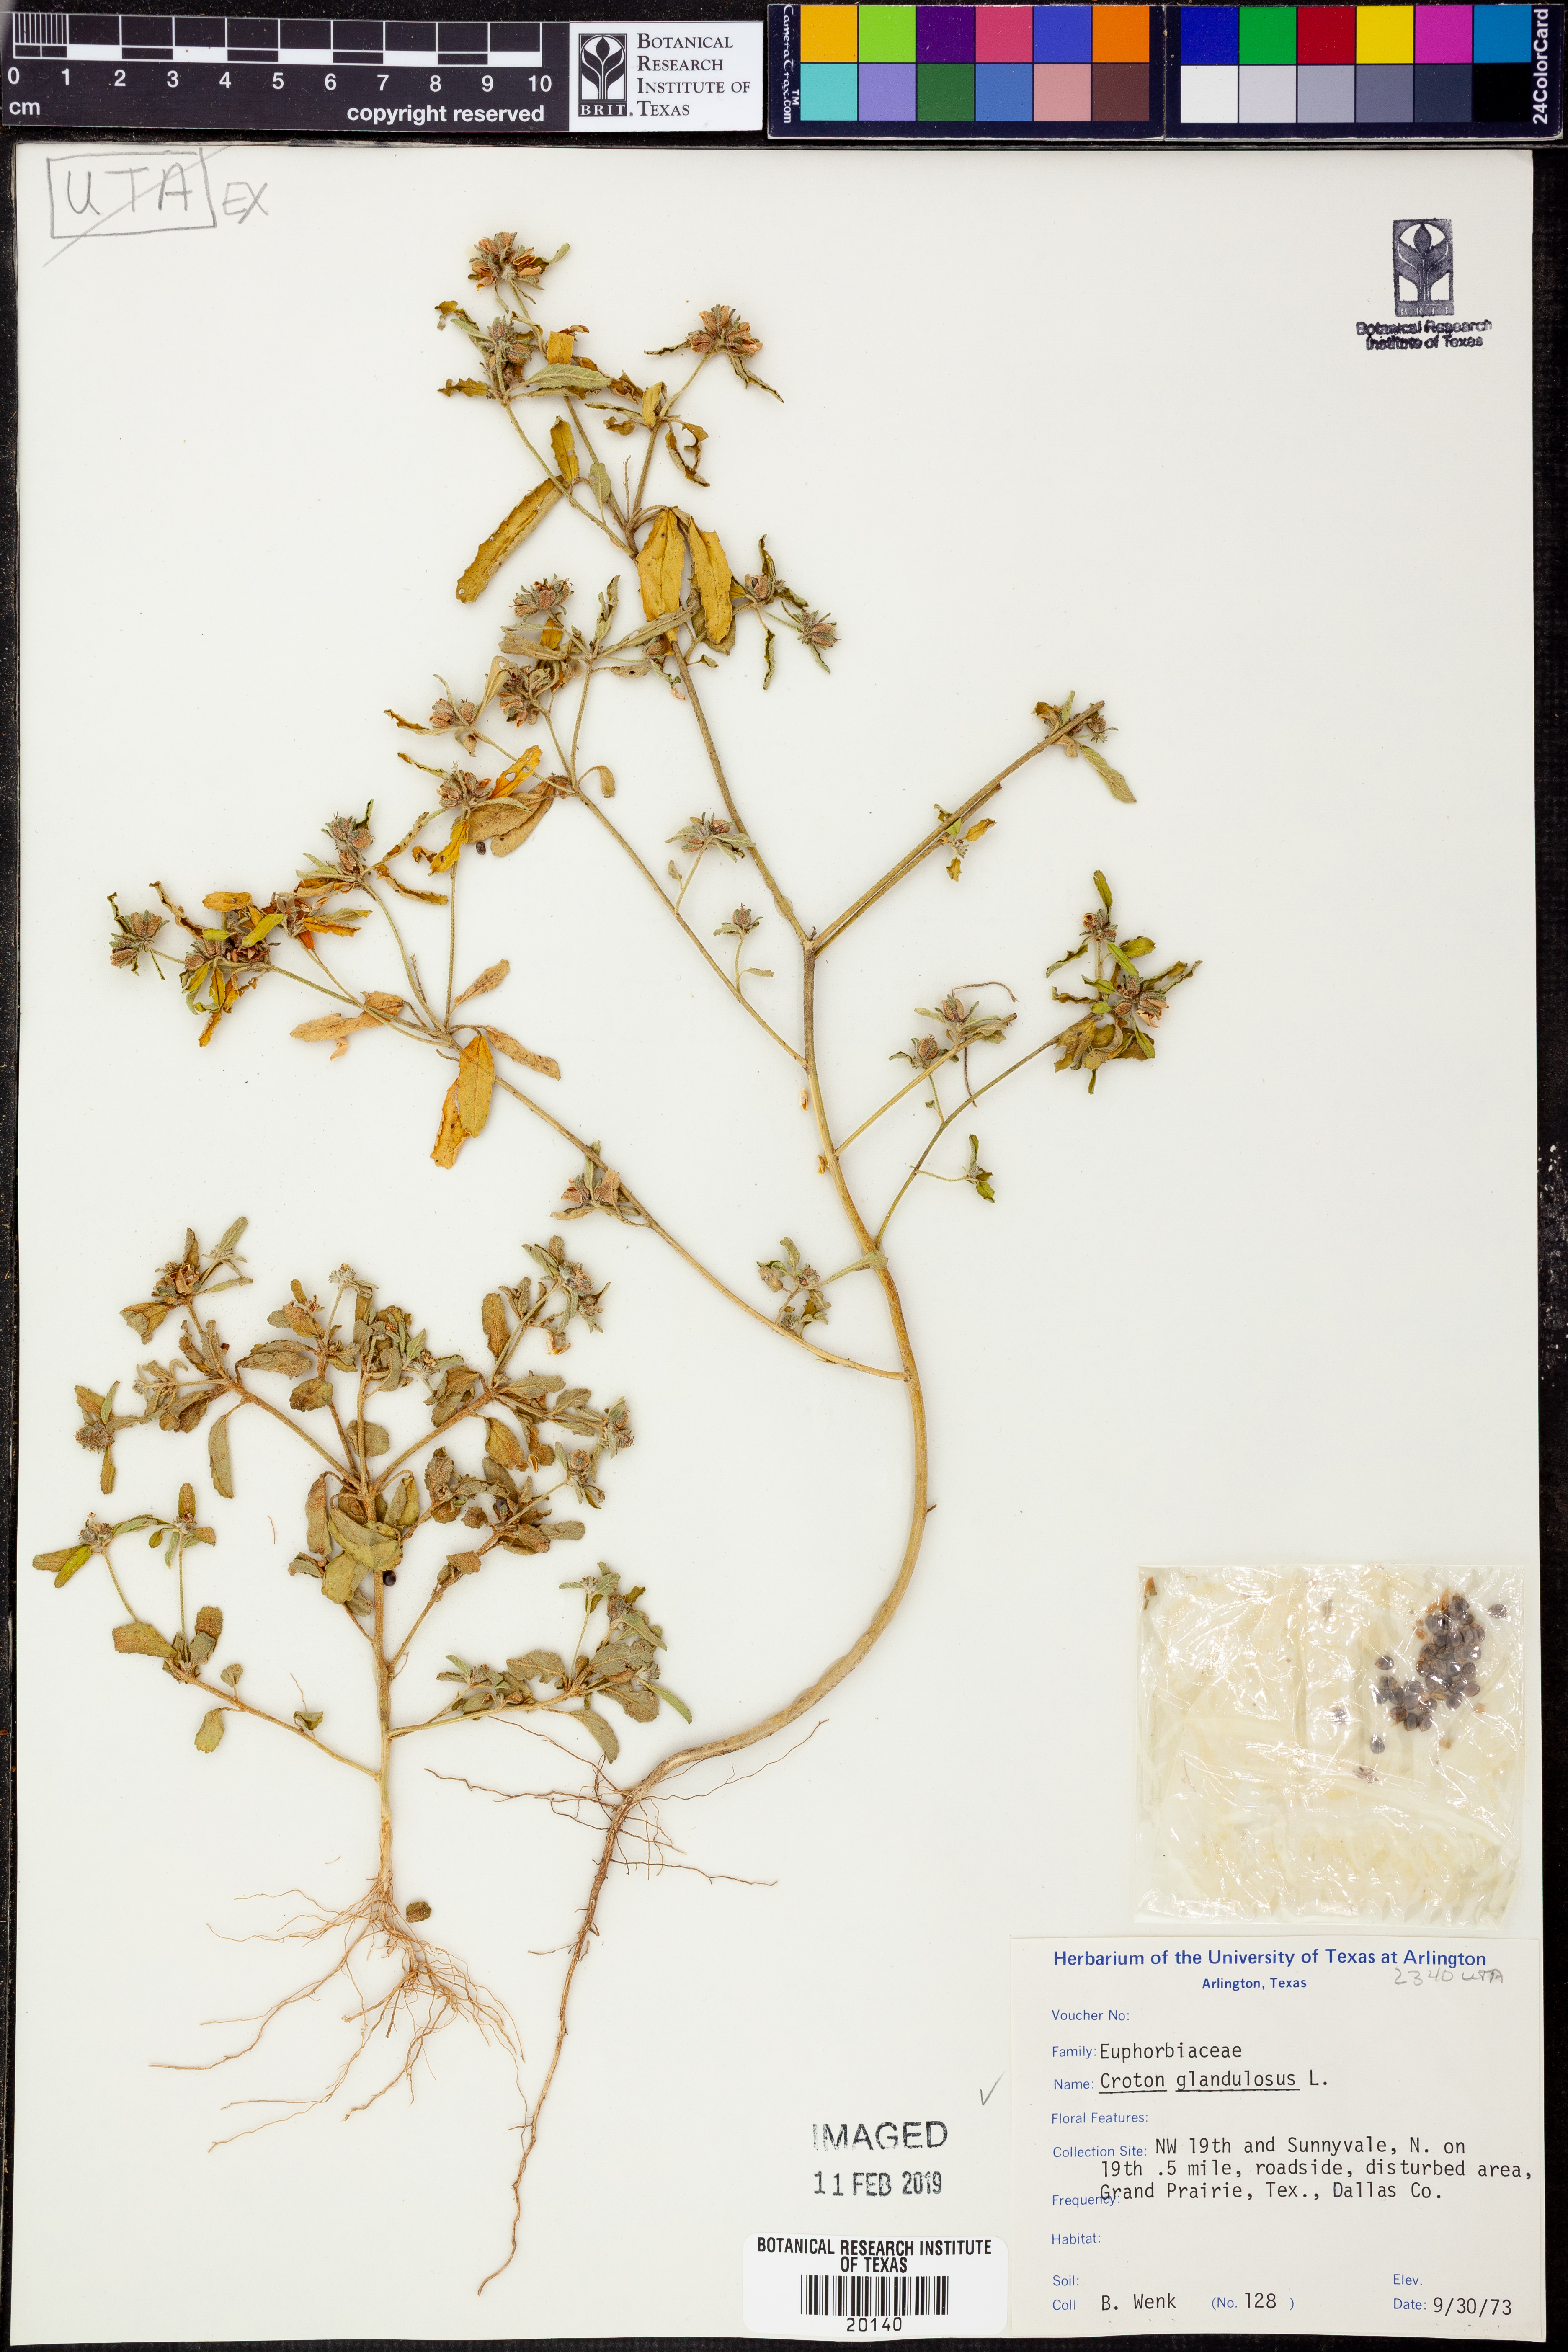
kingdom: Plantae
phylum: Tracheophyta
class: Magnoliopsida
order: Malpighiales
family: Euphorbiaceae
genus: Croton
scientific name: Croton glandulosus
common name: Tropic croton
